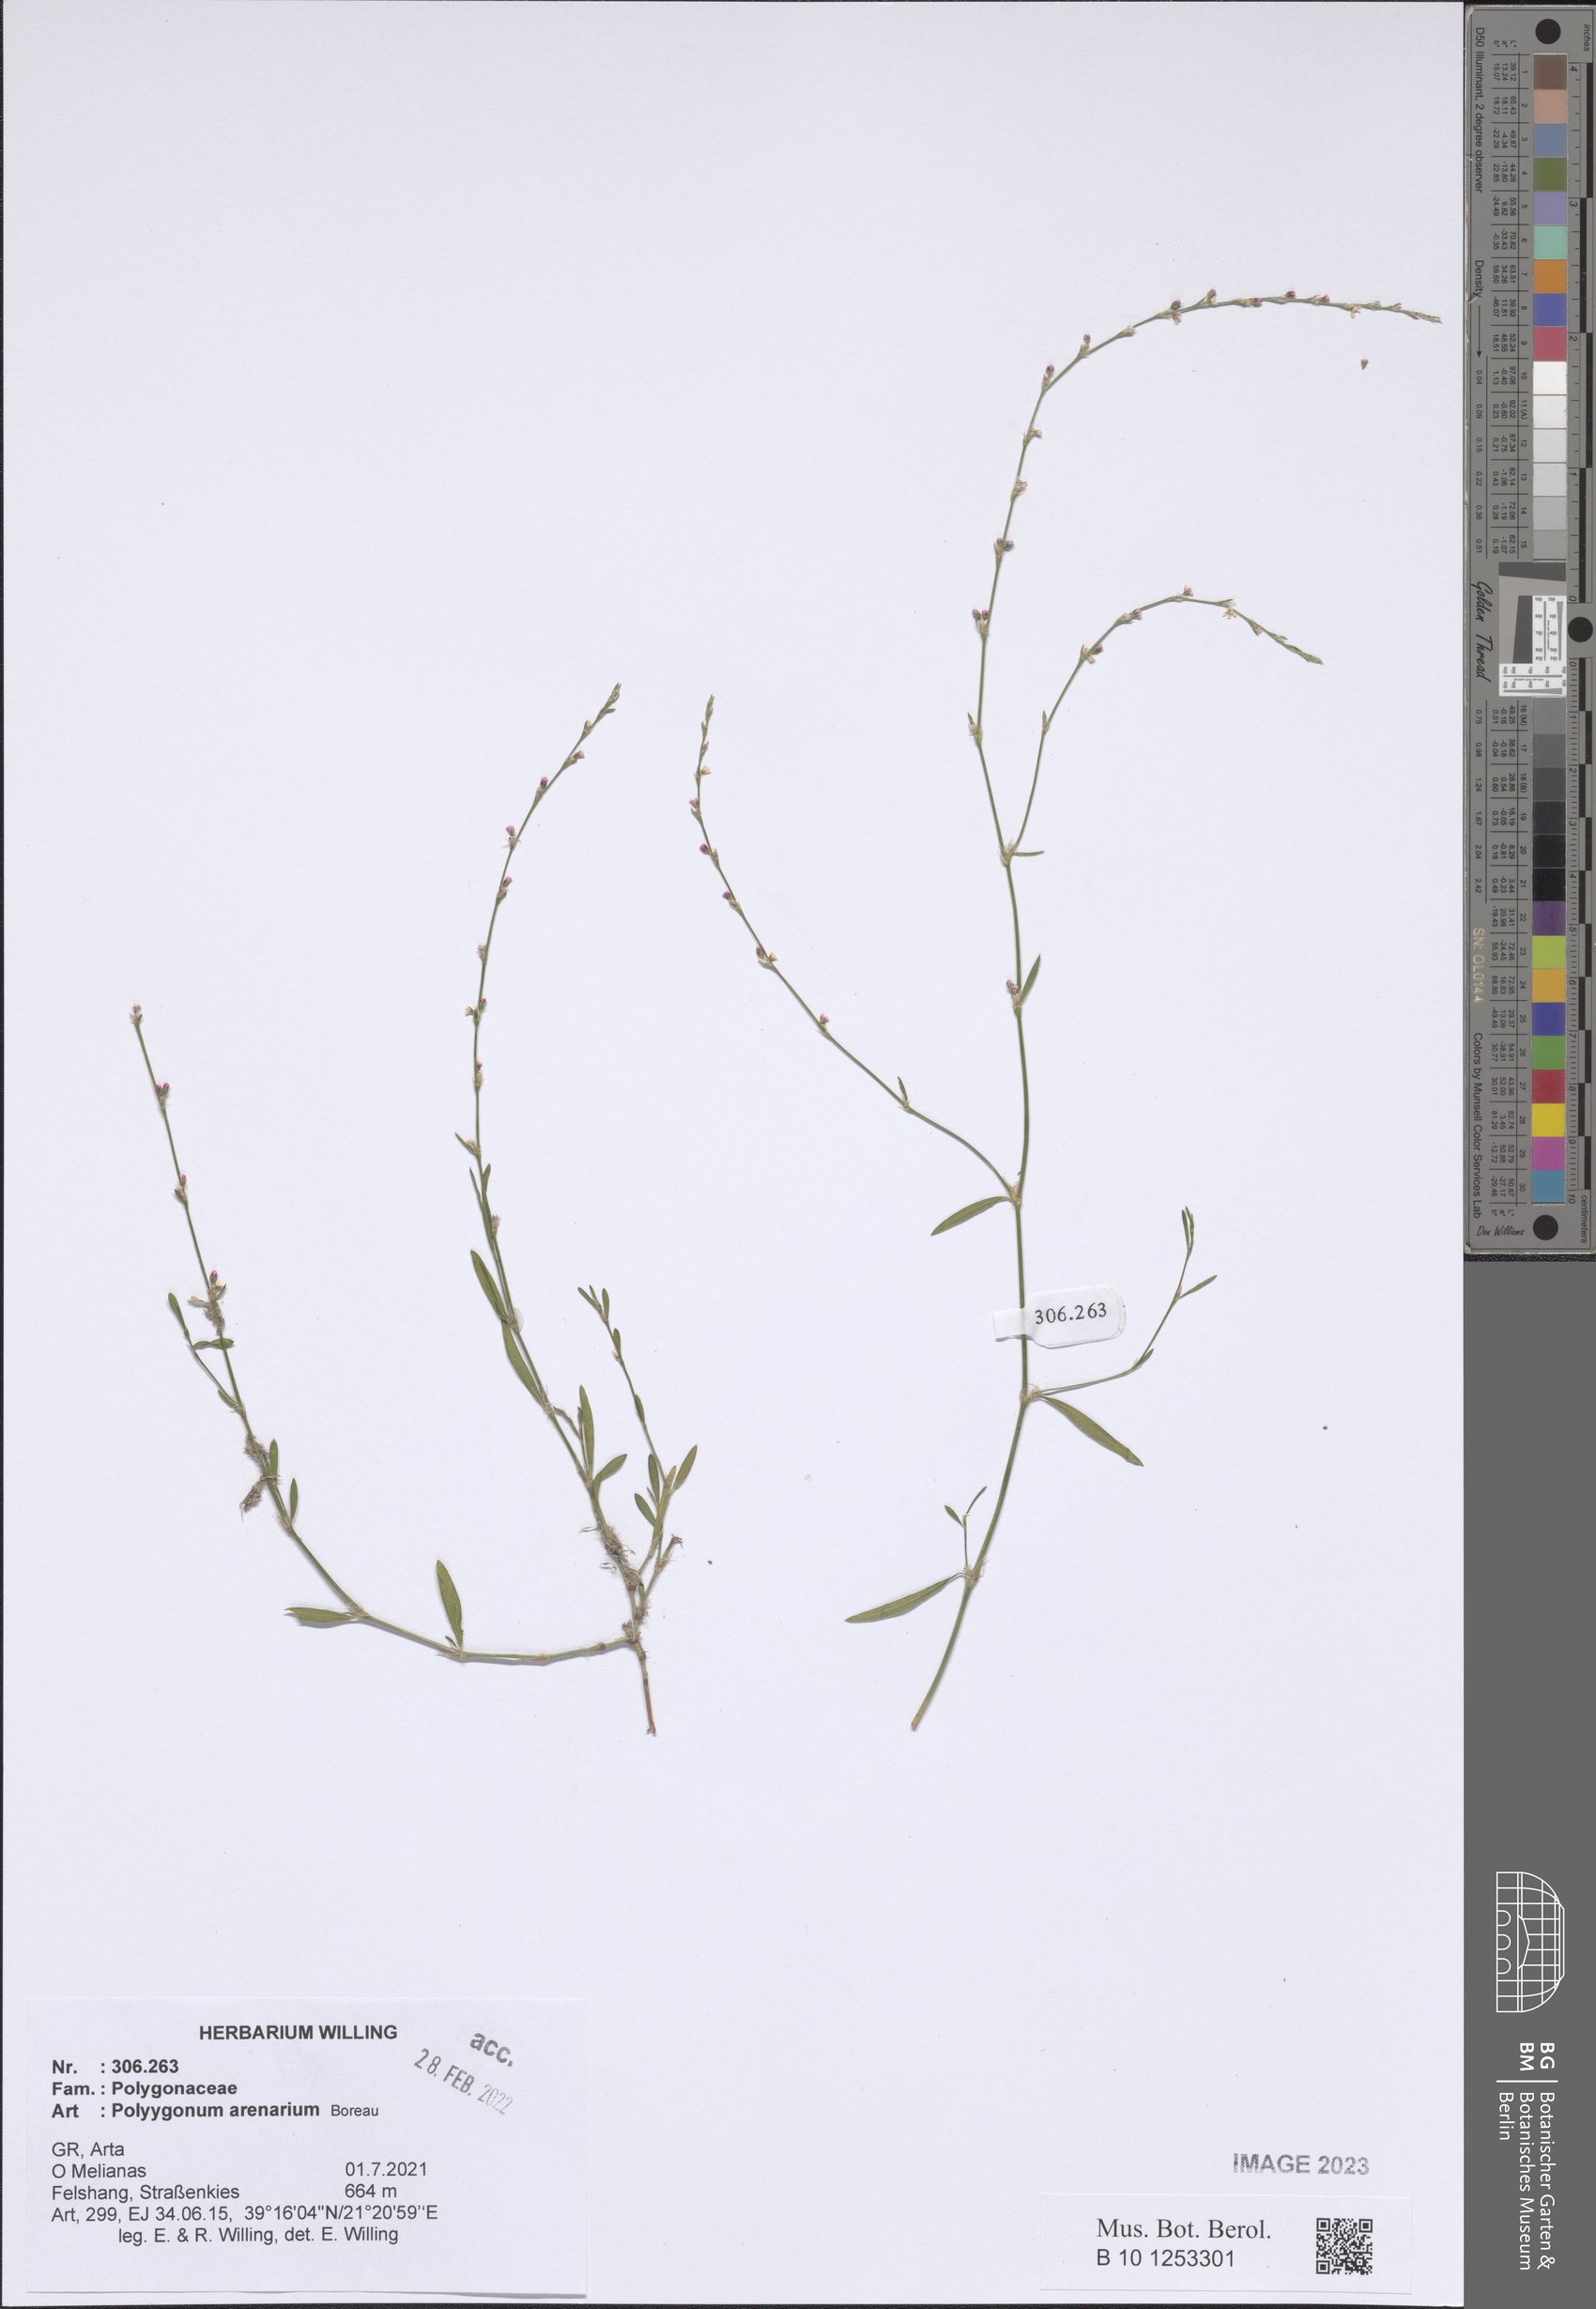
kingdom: Plantae
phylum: Tracheophyta
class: Magnoliopsida
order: Caryophyllales
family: Polygonaceae
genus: Polygonum
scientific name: Polygonum arenarium
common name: Lesser red-knotgrass
